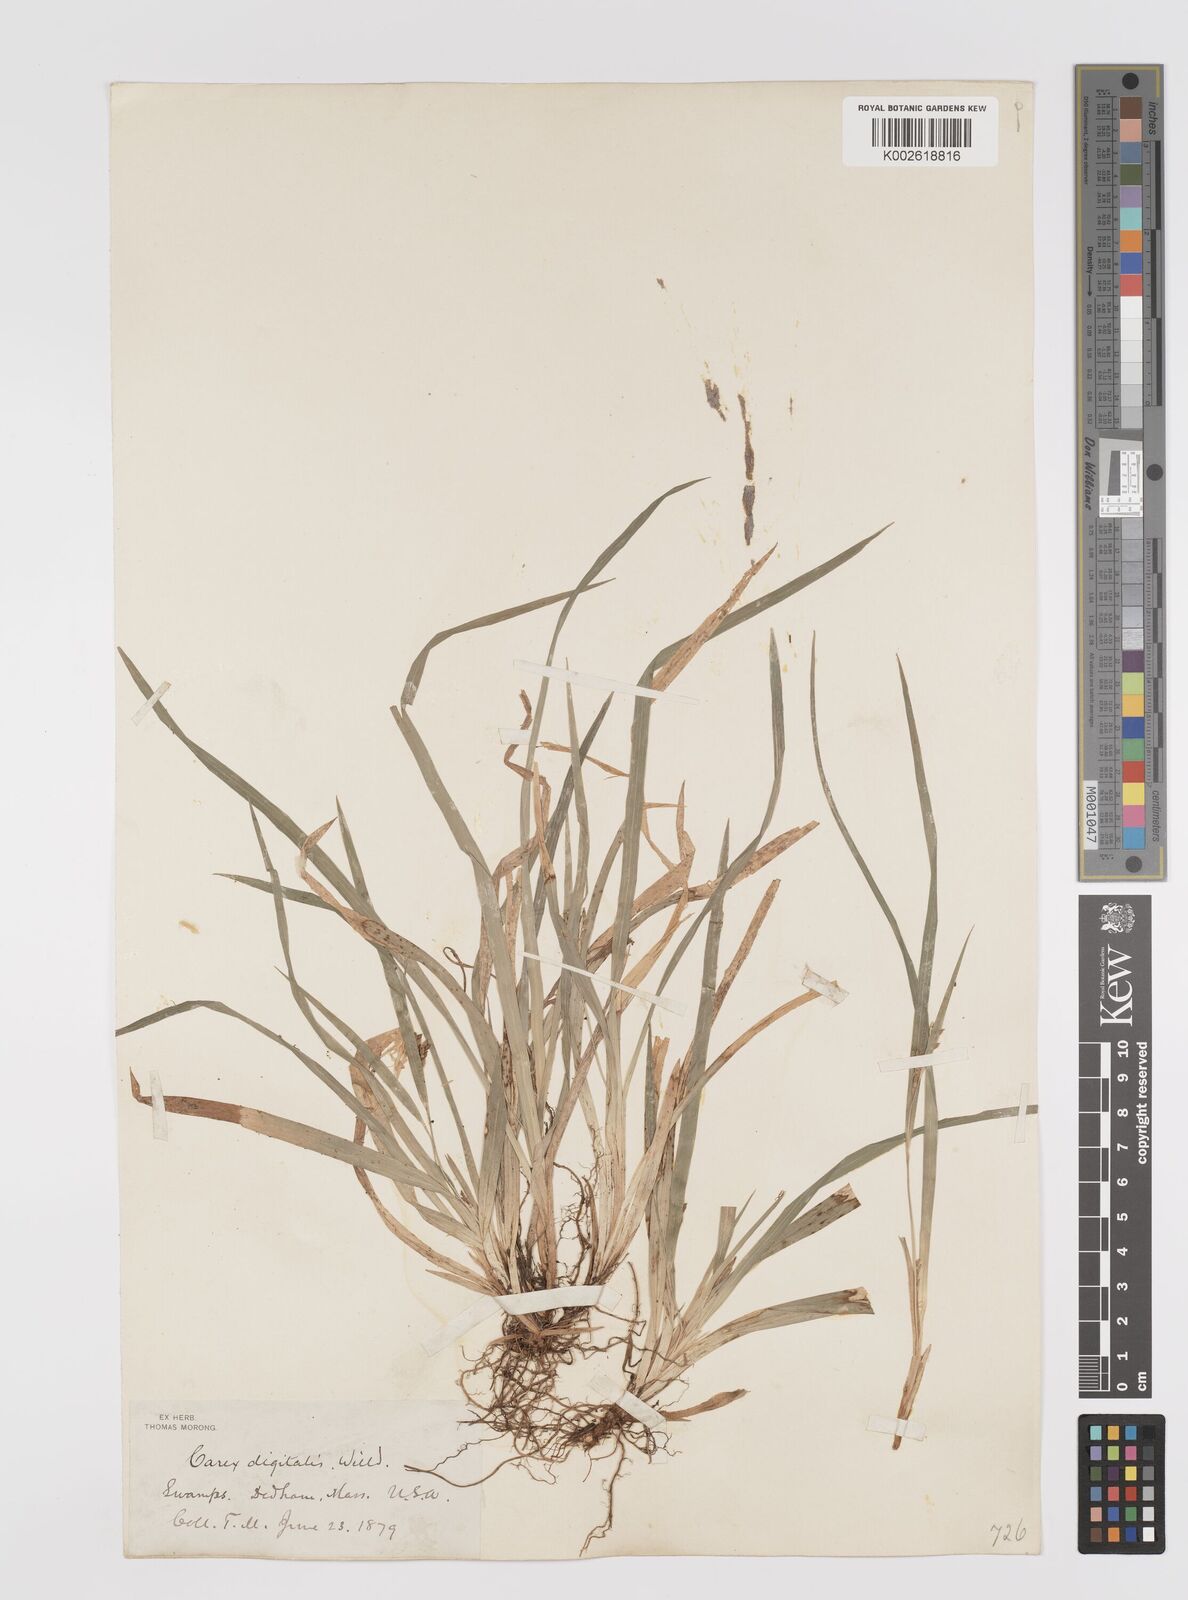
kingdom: Plantae
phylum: Tracheophyta
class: Liliopsida
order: Poales
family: Cyperaceae
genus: Carex
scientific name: Carex digitalis
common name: Slender wood sedge
